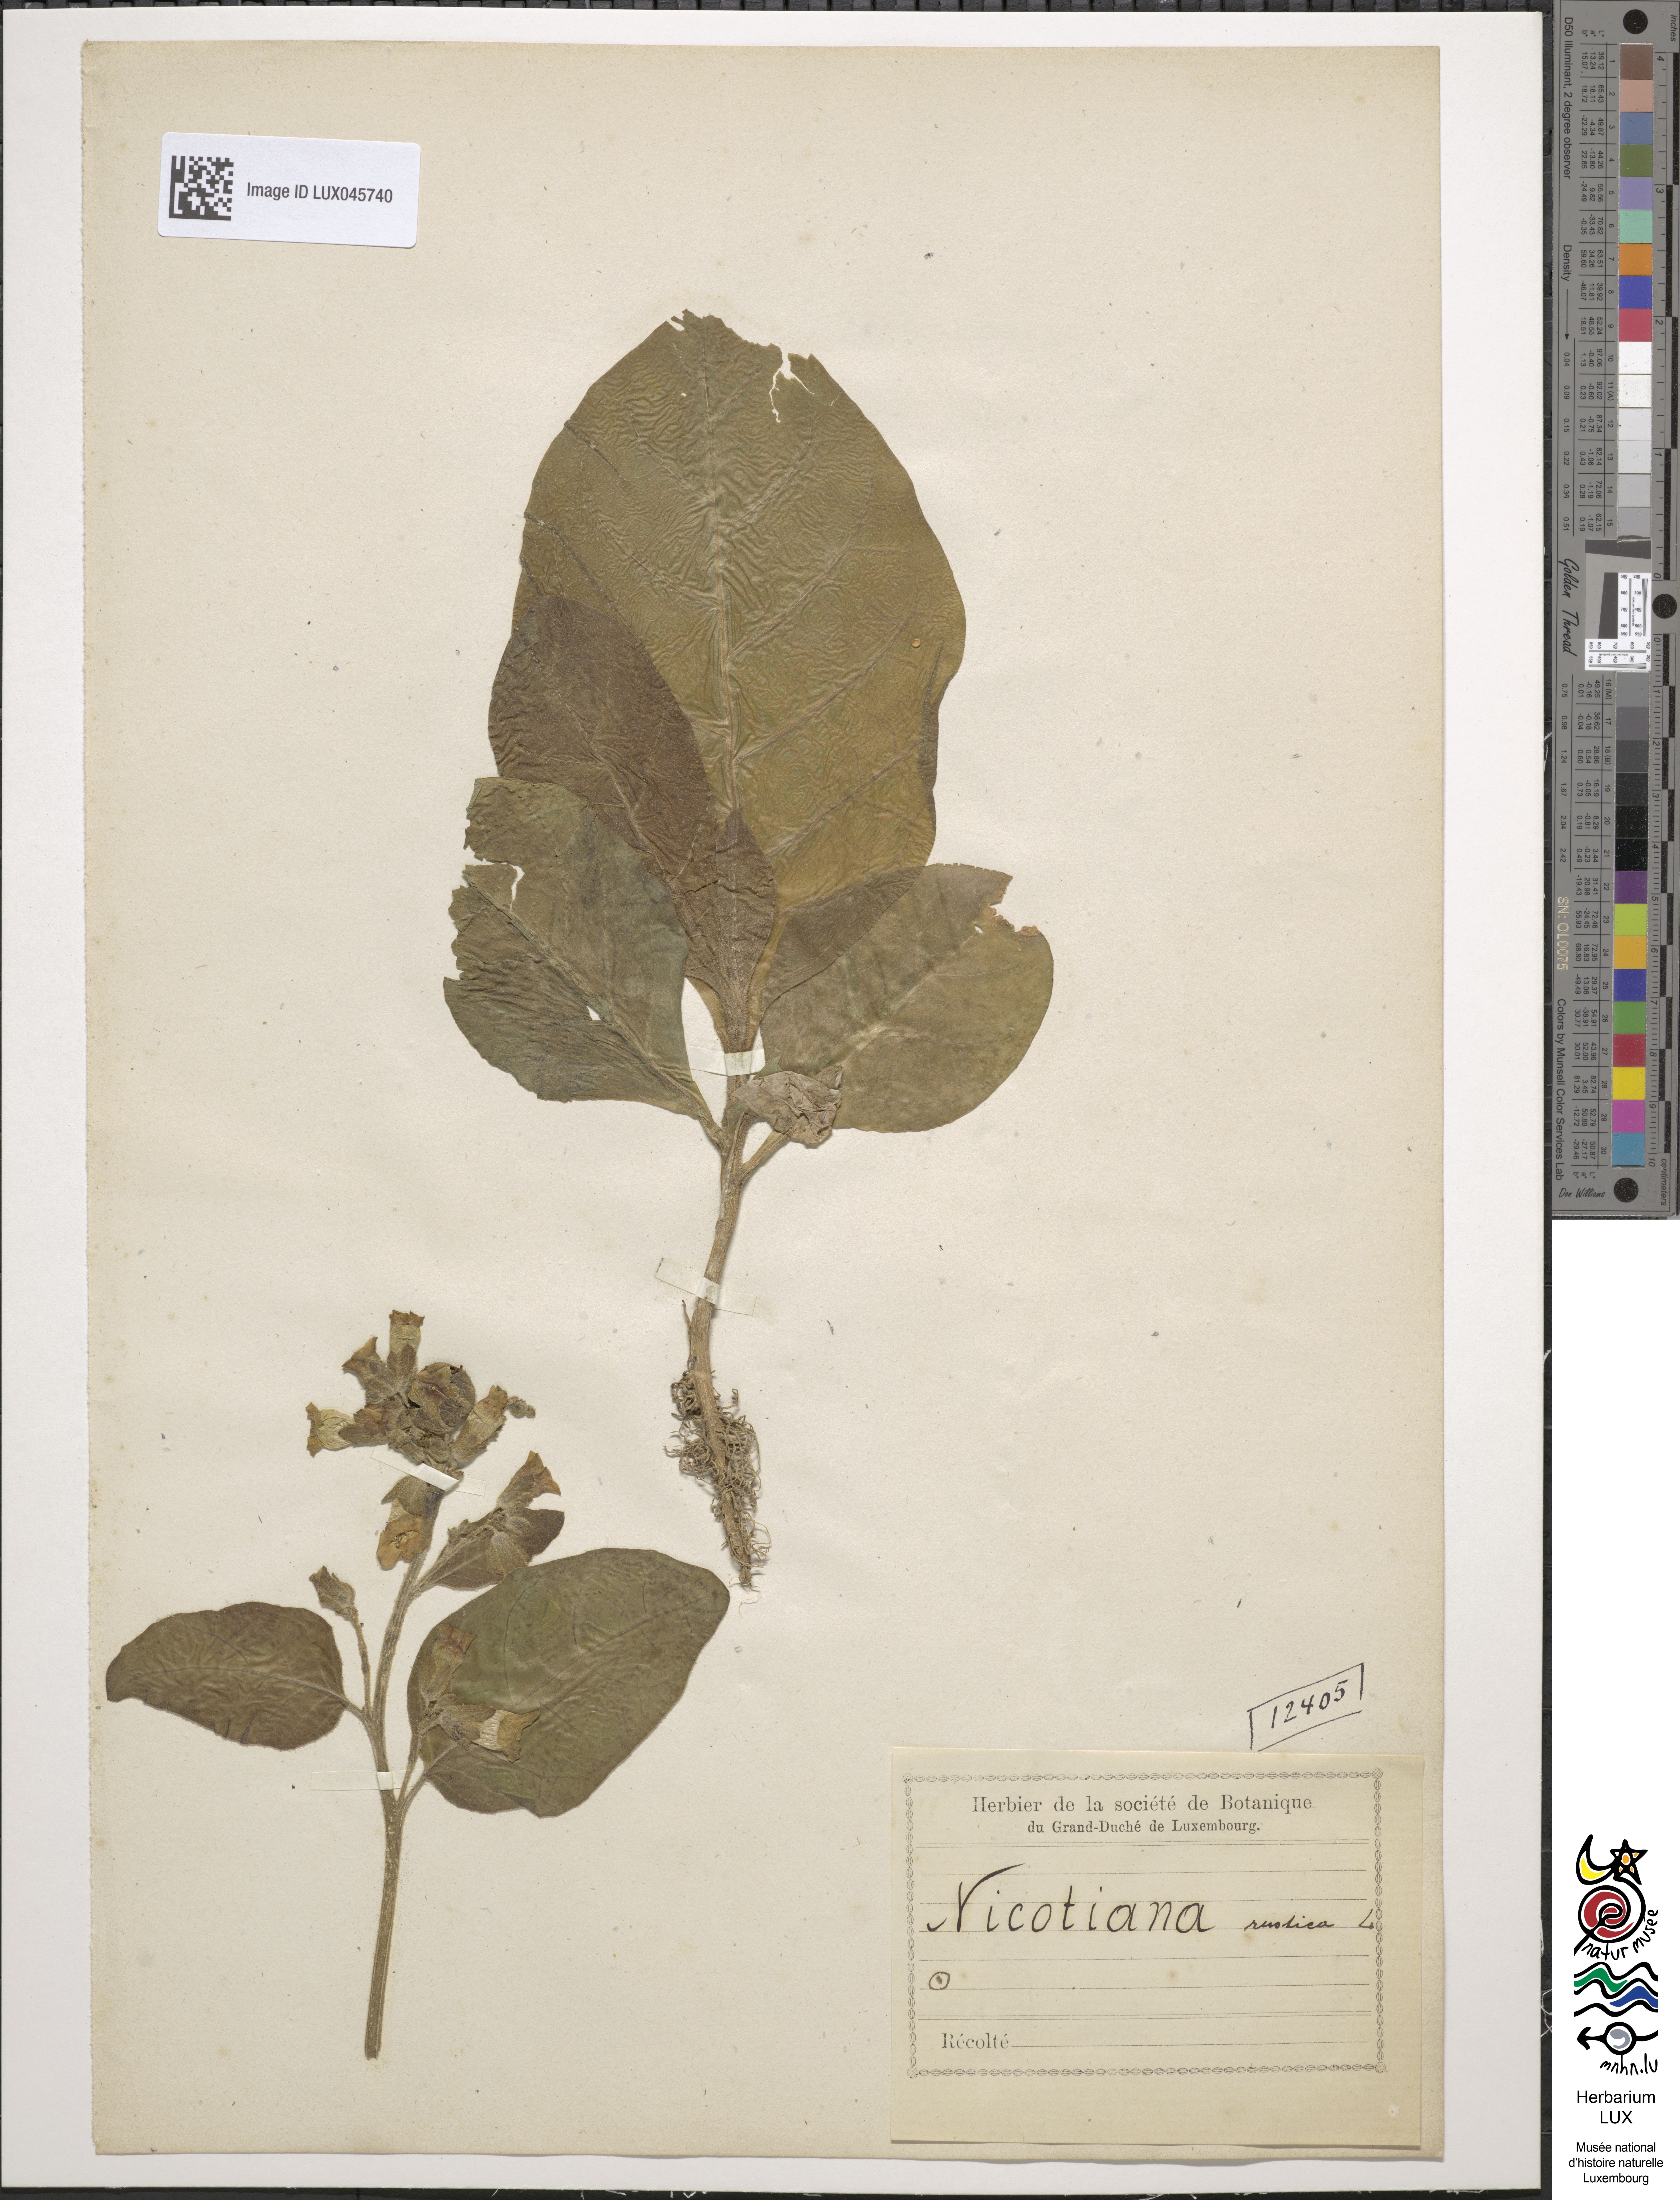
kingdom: Plantae
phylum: Tracheophyta
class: Magnoliopsida
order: Solanales
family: Solanaceae
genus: Nicotiana
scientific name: Nicotiana rustica
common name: Wild tobacco
